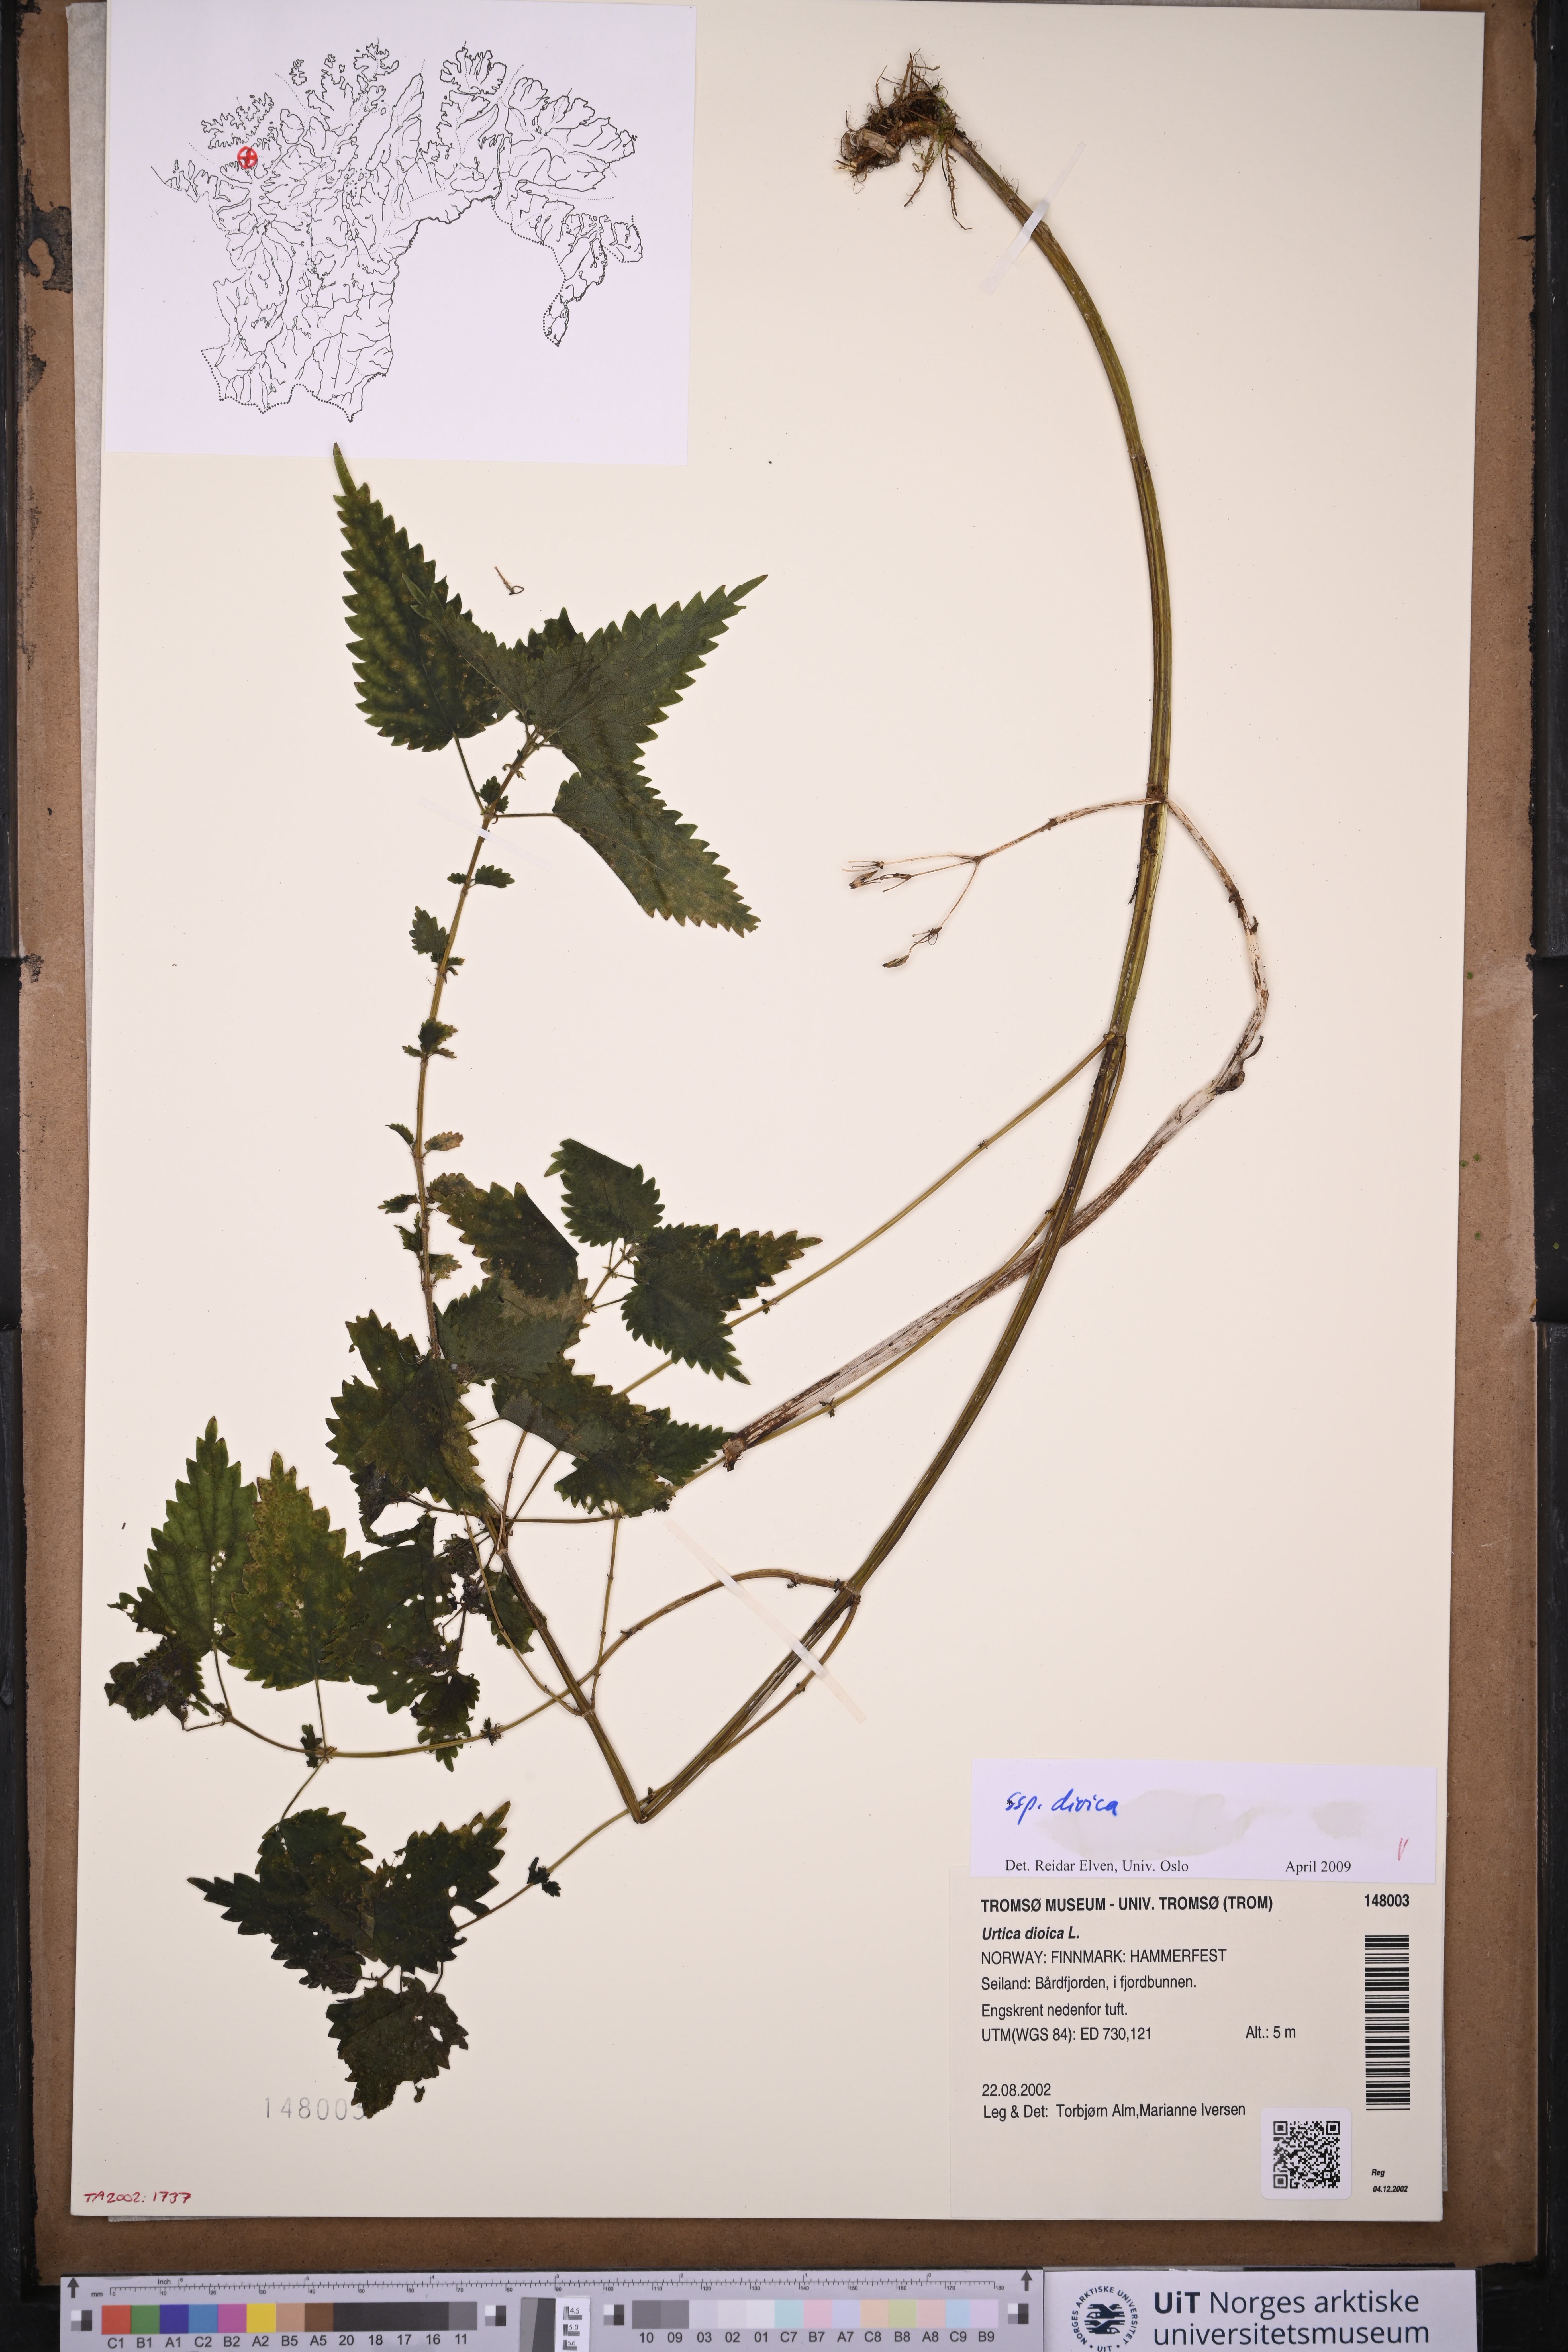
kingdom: Plantae
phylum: Tracheophyta
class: Magnoliopsida
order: Rosales
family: Urticaceae
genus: Urtica
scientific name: Urtica dioica
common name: Common nettle
